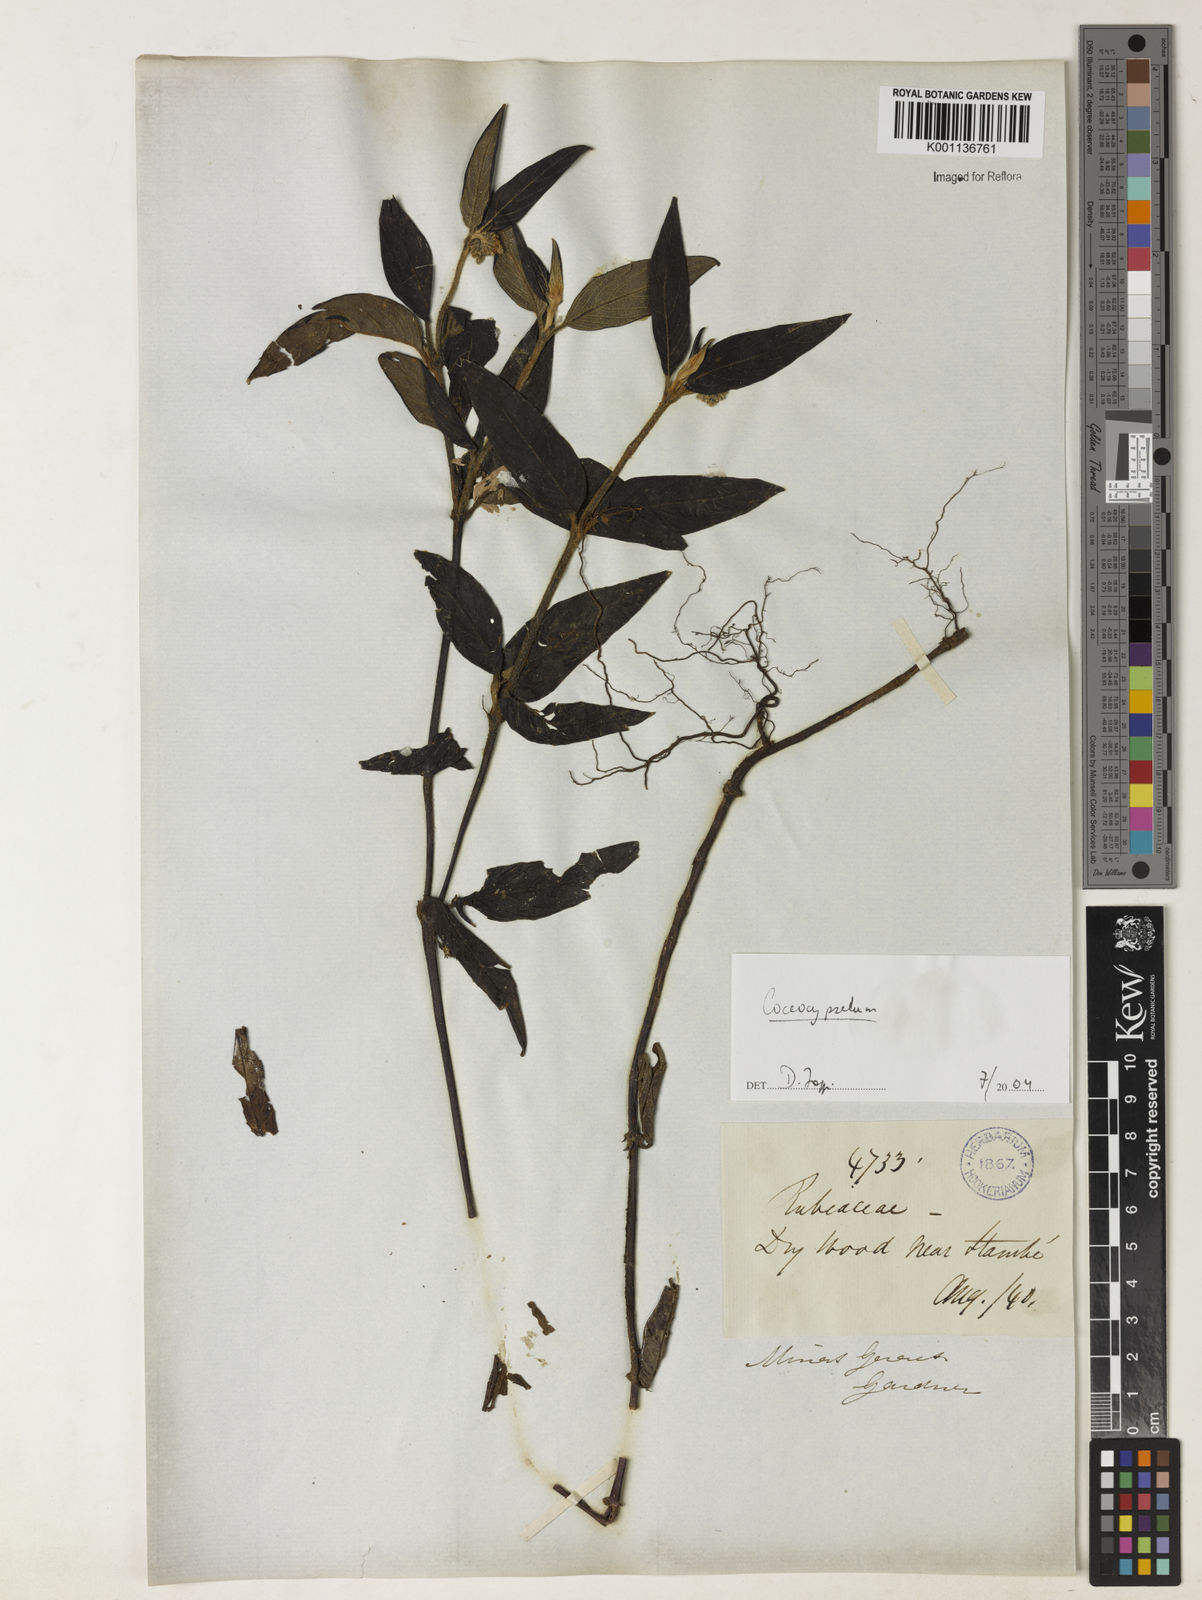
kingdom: Plantae
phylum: Tracheophyta
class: Magnoliopsida
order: Gentianales
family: Rubiaceae
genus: Coccocypselum
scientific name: Coccocypselum
